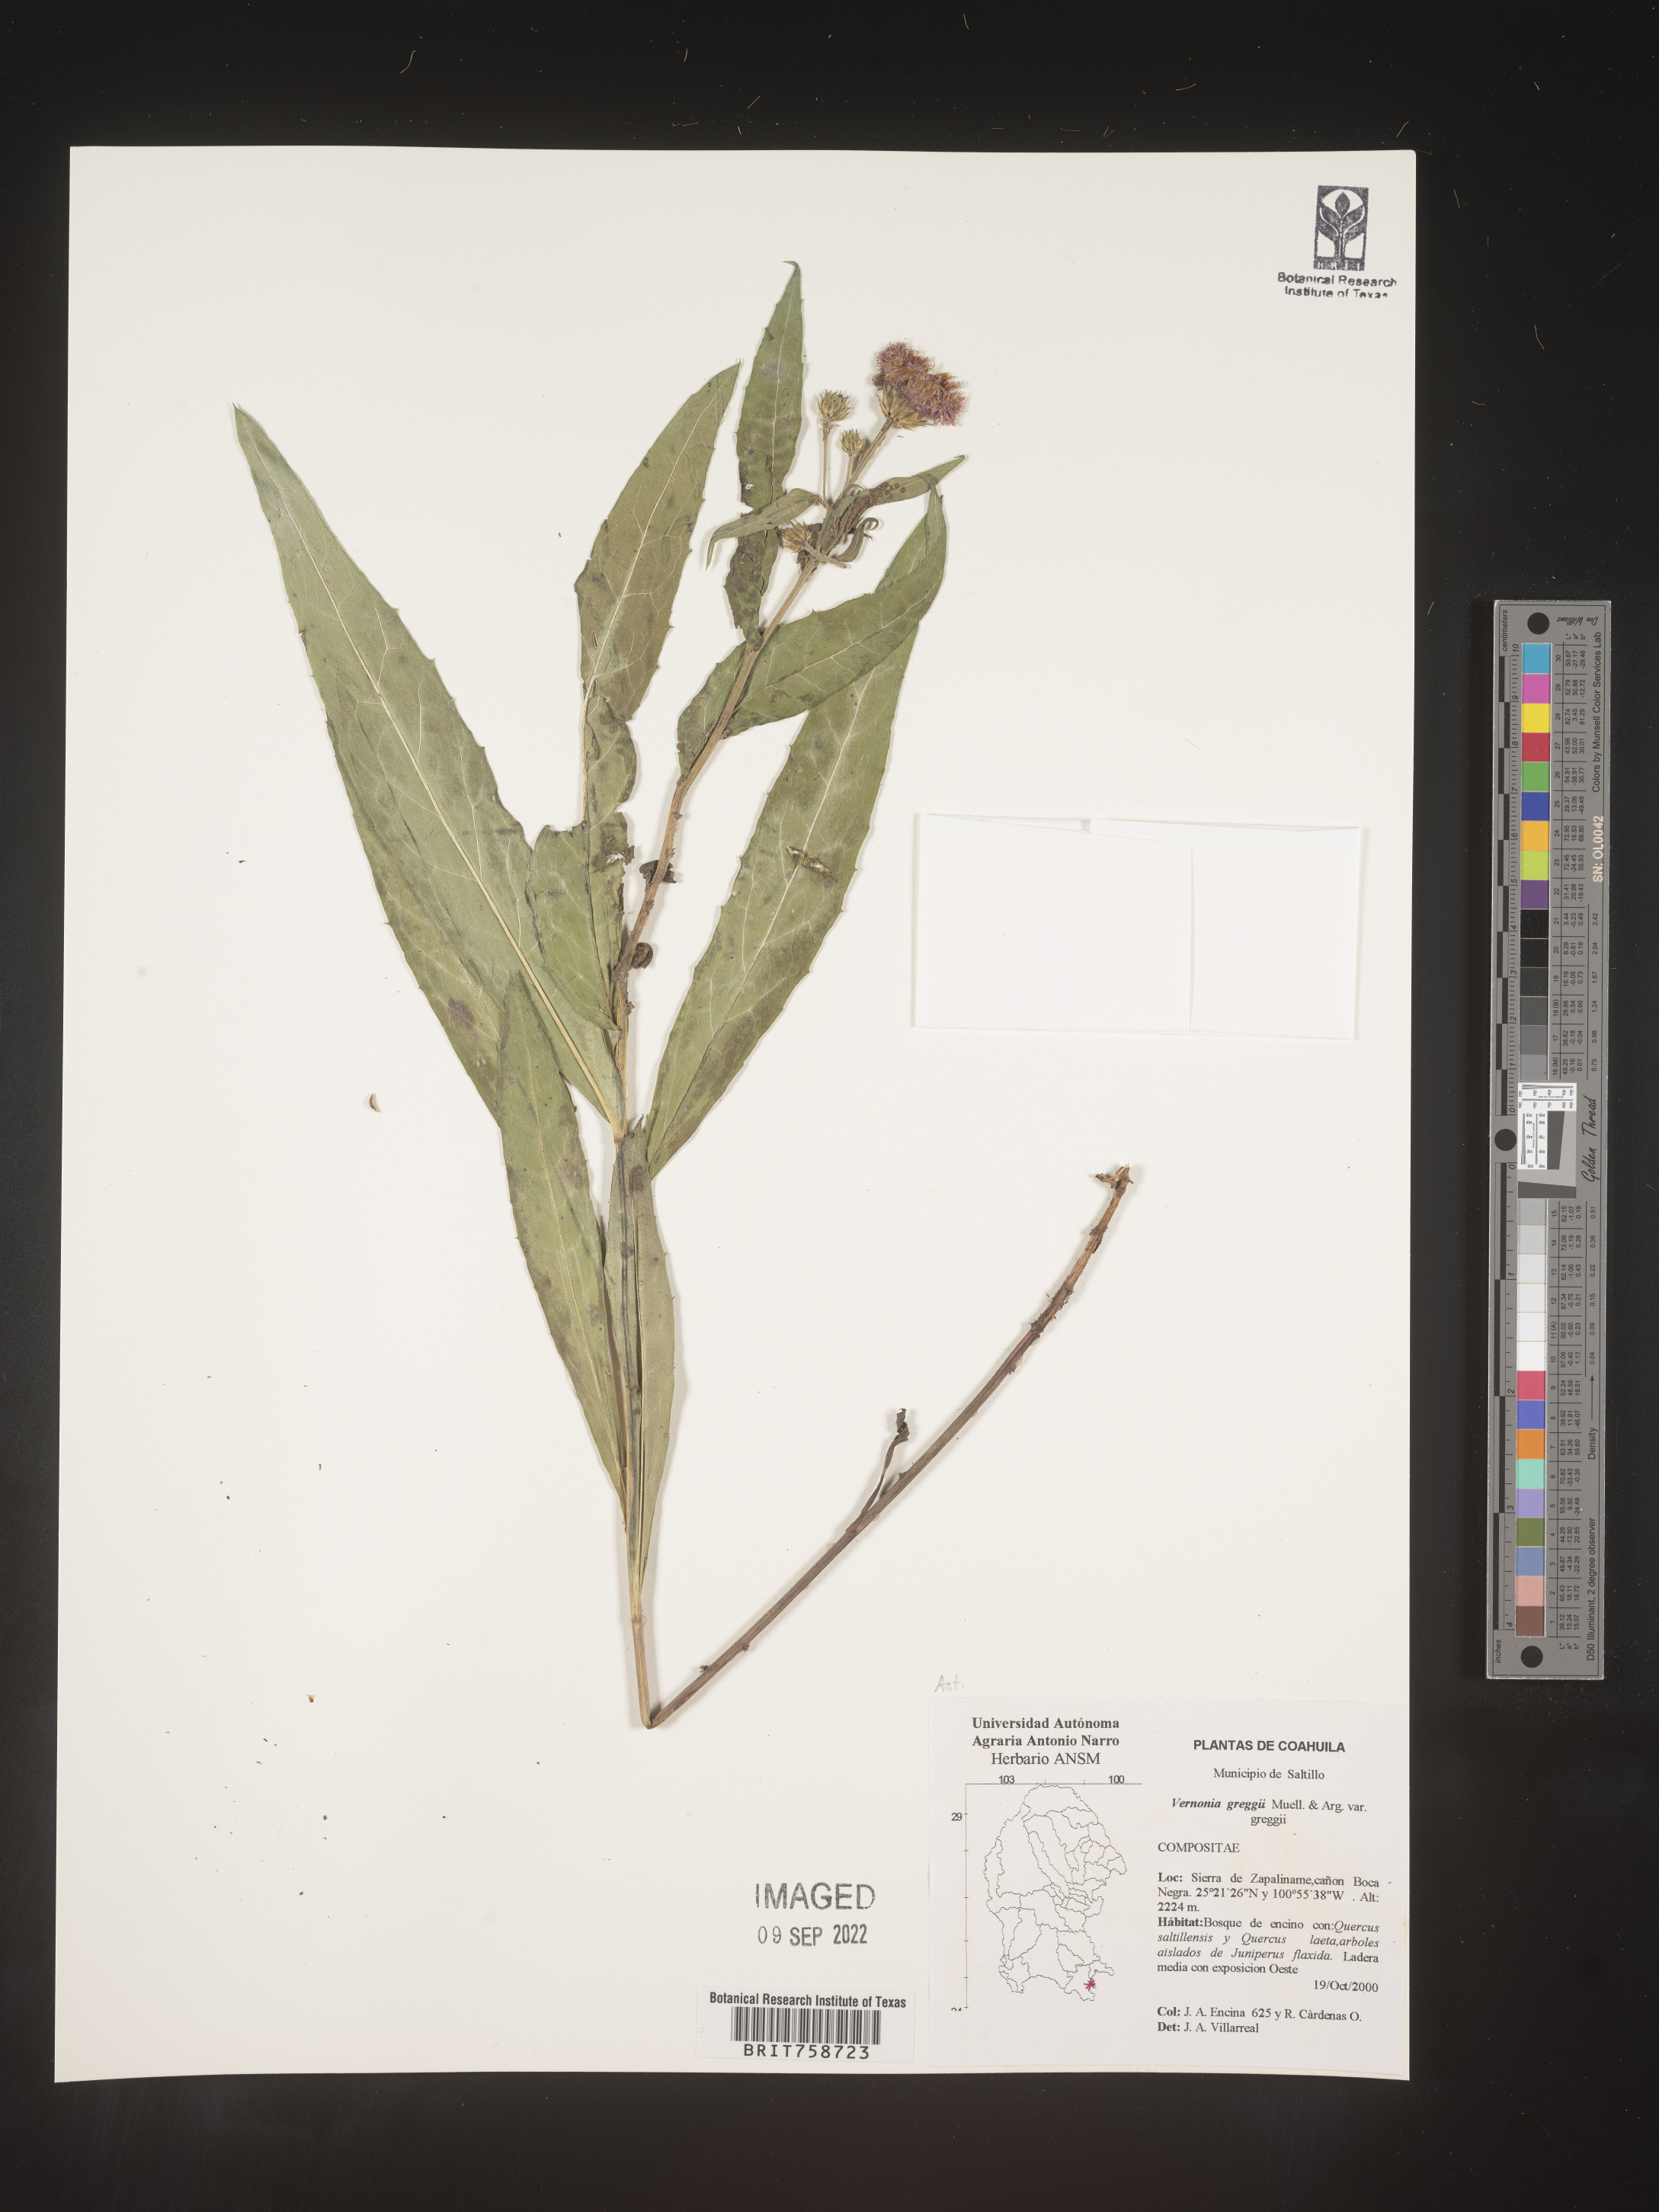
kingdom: Plantae
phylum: Tracheophyta
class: Magnoliopsida
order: Asterales
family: Asteraceae
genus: Vernonia
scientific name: Vernonia
